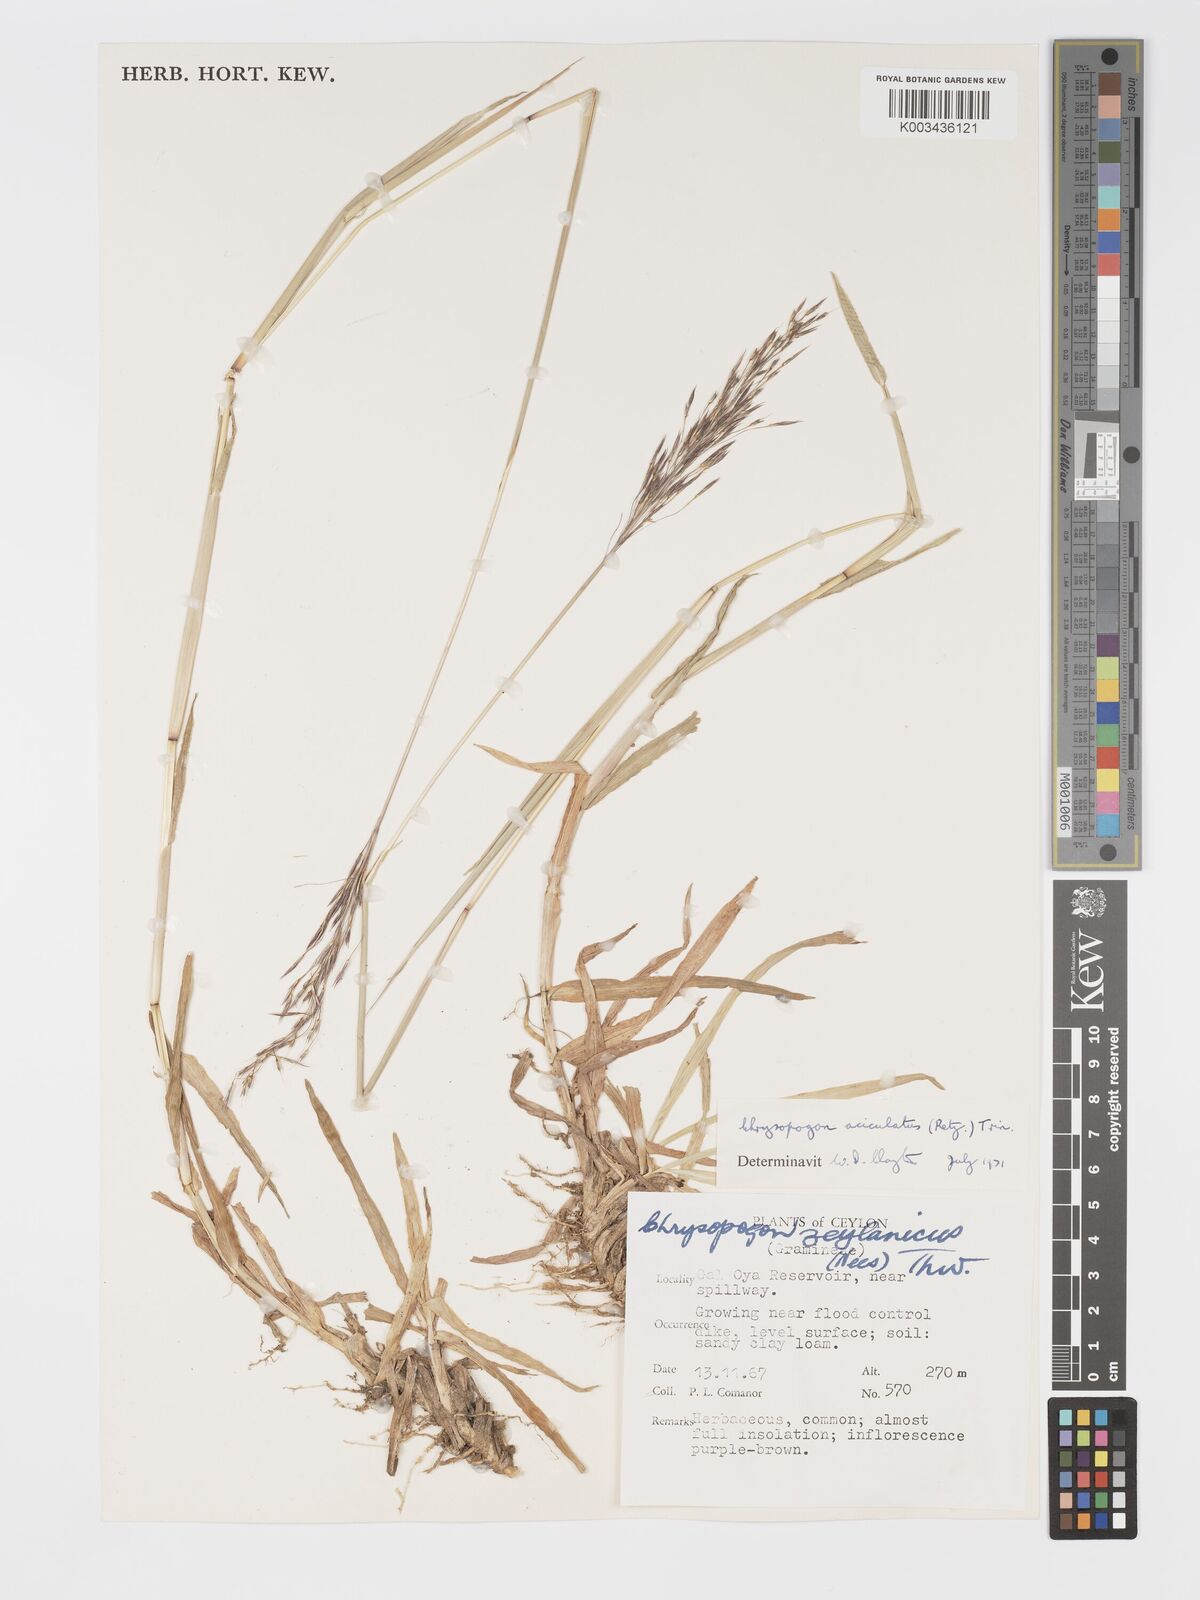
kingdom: Plantae
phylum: Tracheophyta
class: Liliopsida
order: Poales
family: Poaceae
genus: Chrysopogon
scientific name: Chrysopogon aciculatus
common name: Pilipiliula
